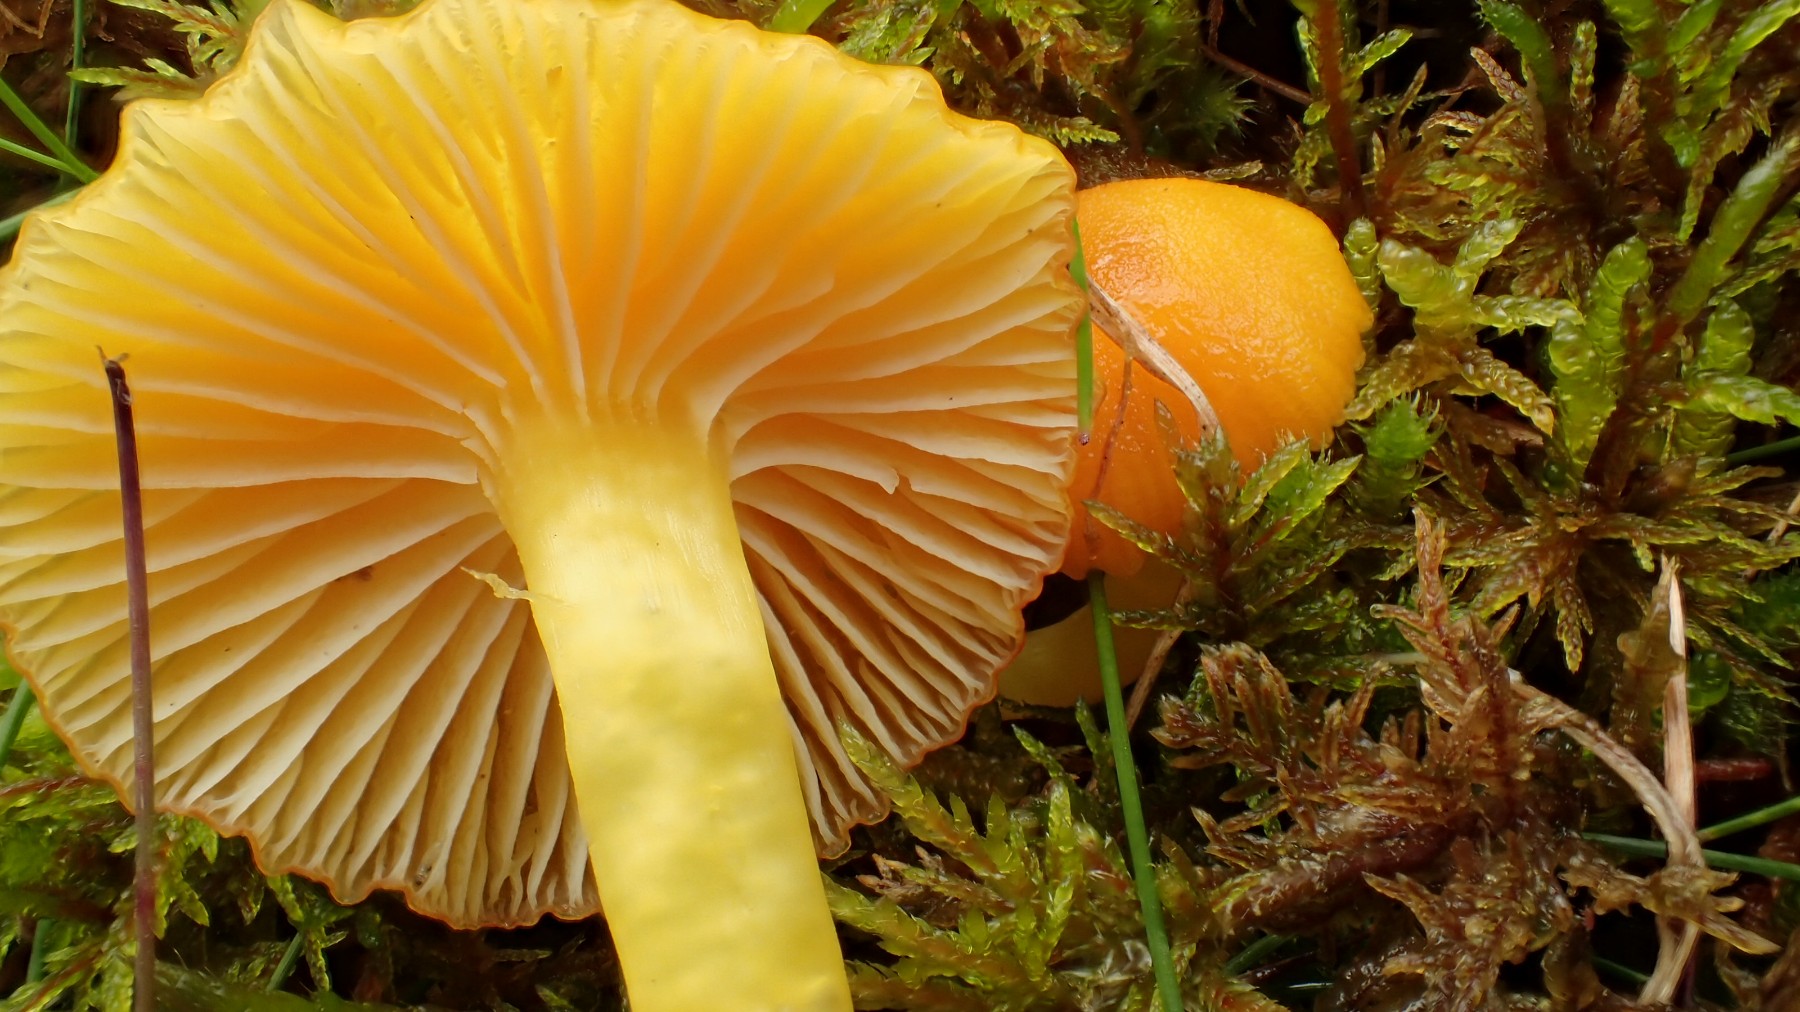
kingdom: Fungi
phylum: Basidiomycota
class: Agaricomycetes
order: Agaricales
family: Hygrophoraceae
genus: Hygrocybe
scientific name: Hygrocybe ceracea
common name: voksgul vokshat
